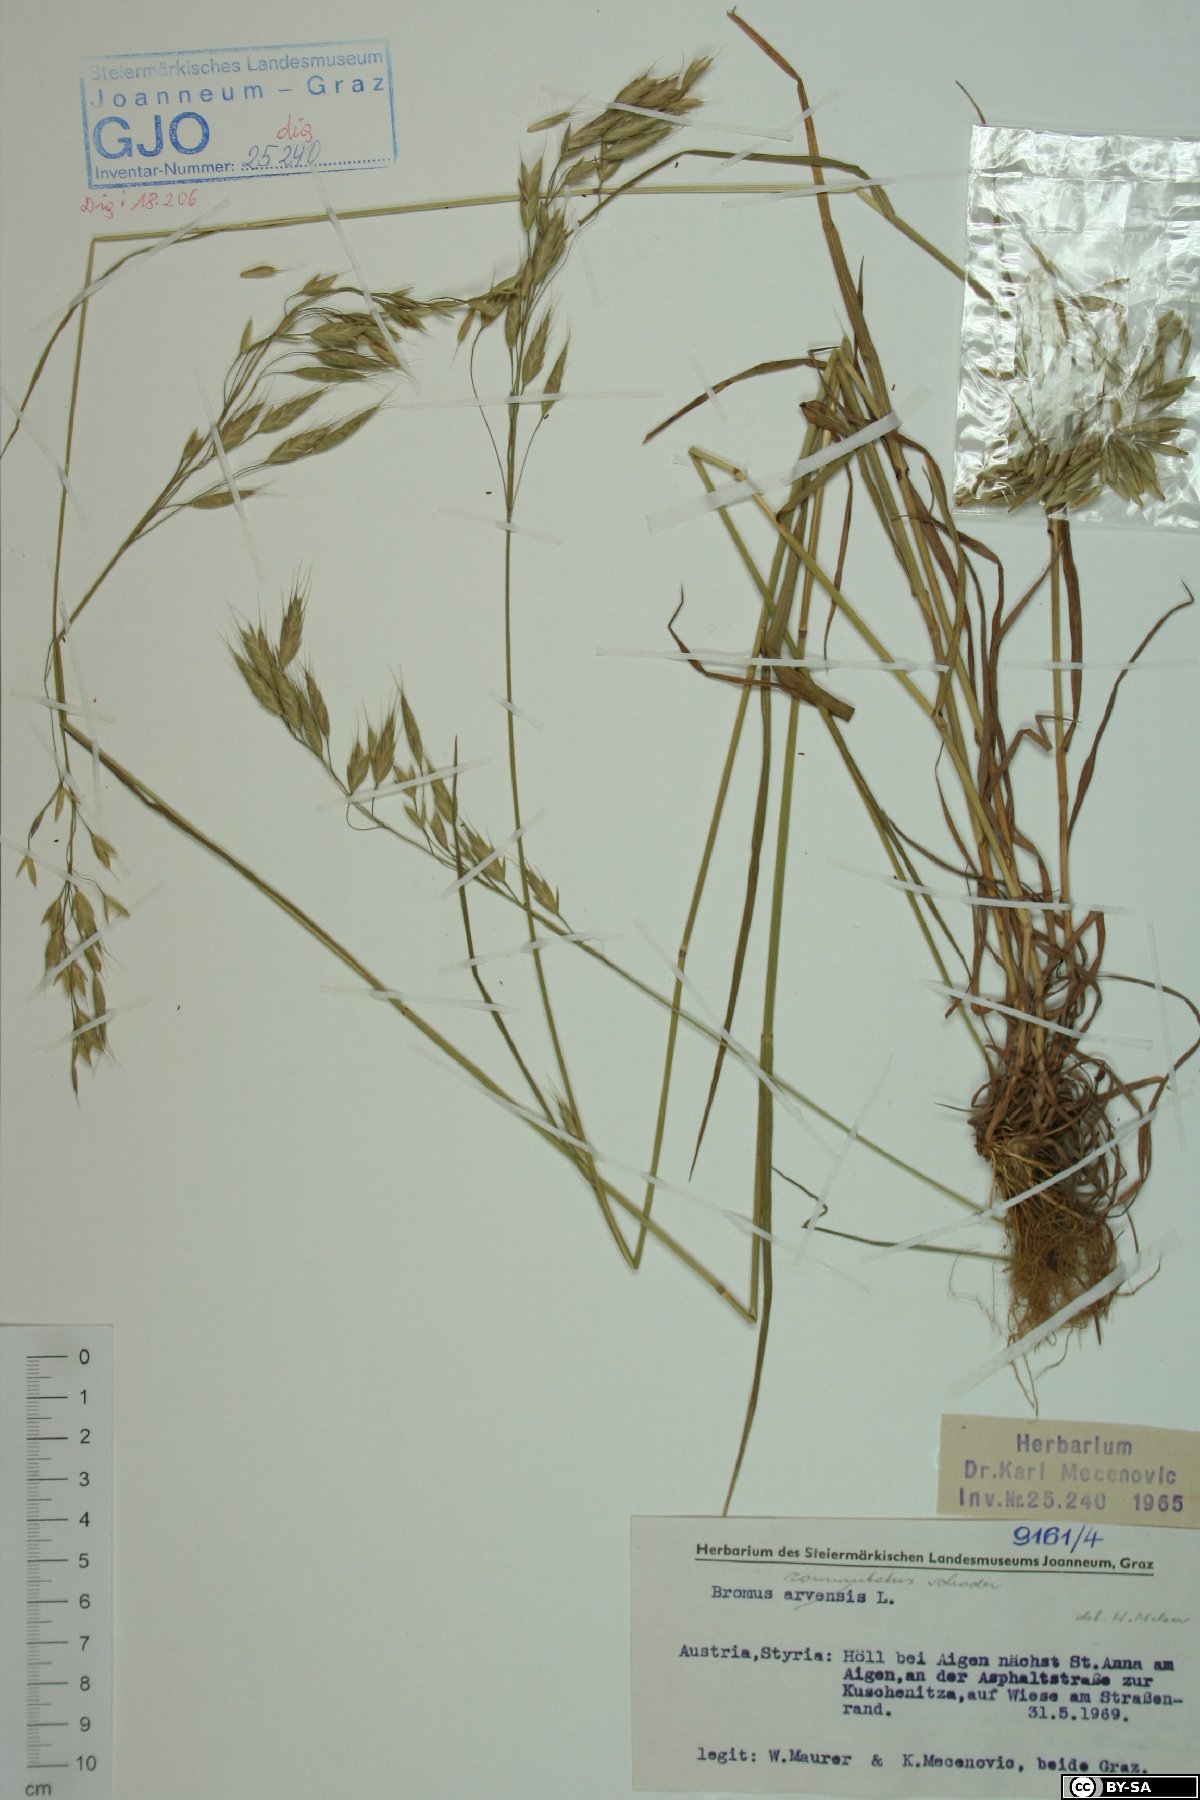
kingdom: Plantae
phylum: Tracheophyta
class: Liliopsida
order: Poales
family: Poaceae
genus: Bromus
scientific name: Bromus commutatus
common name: Meadow brome
